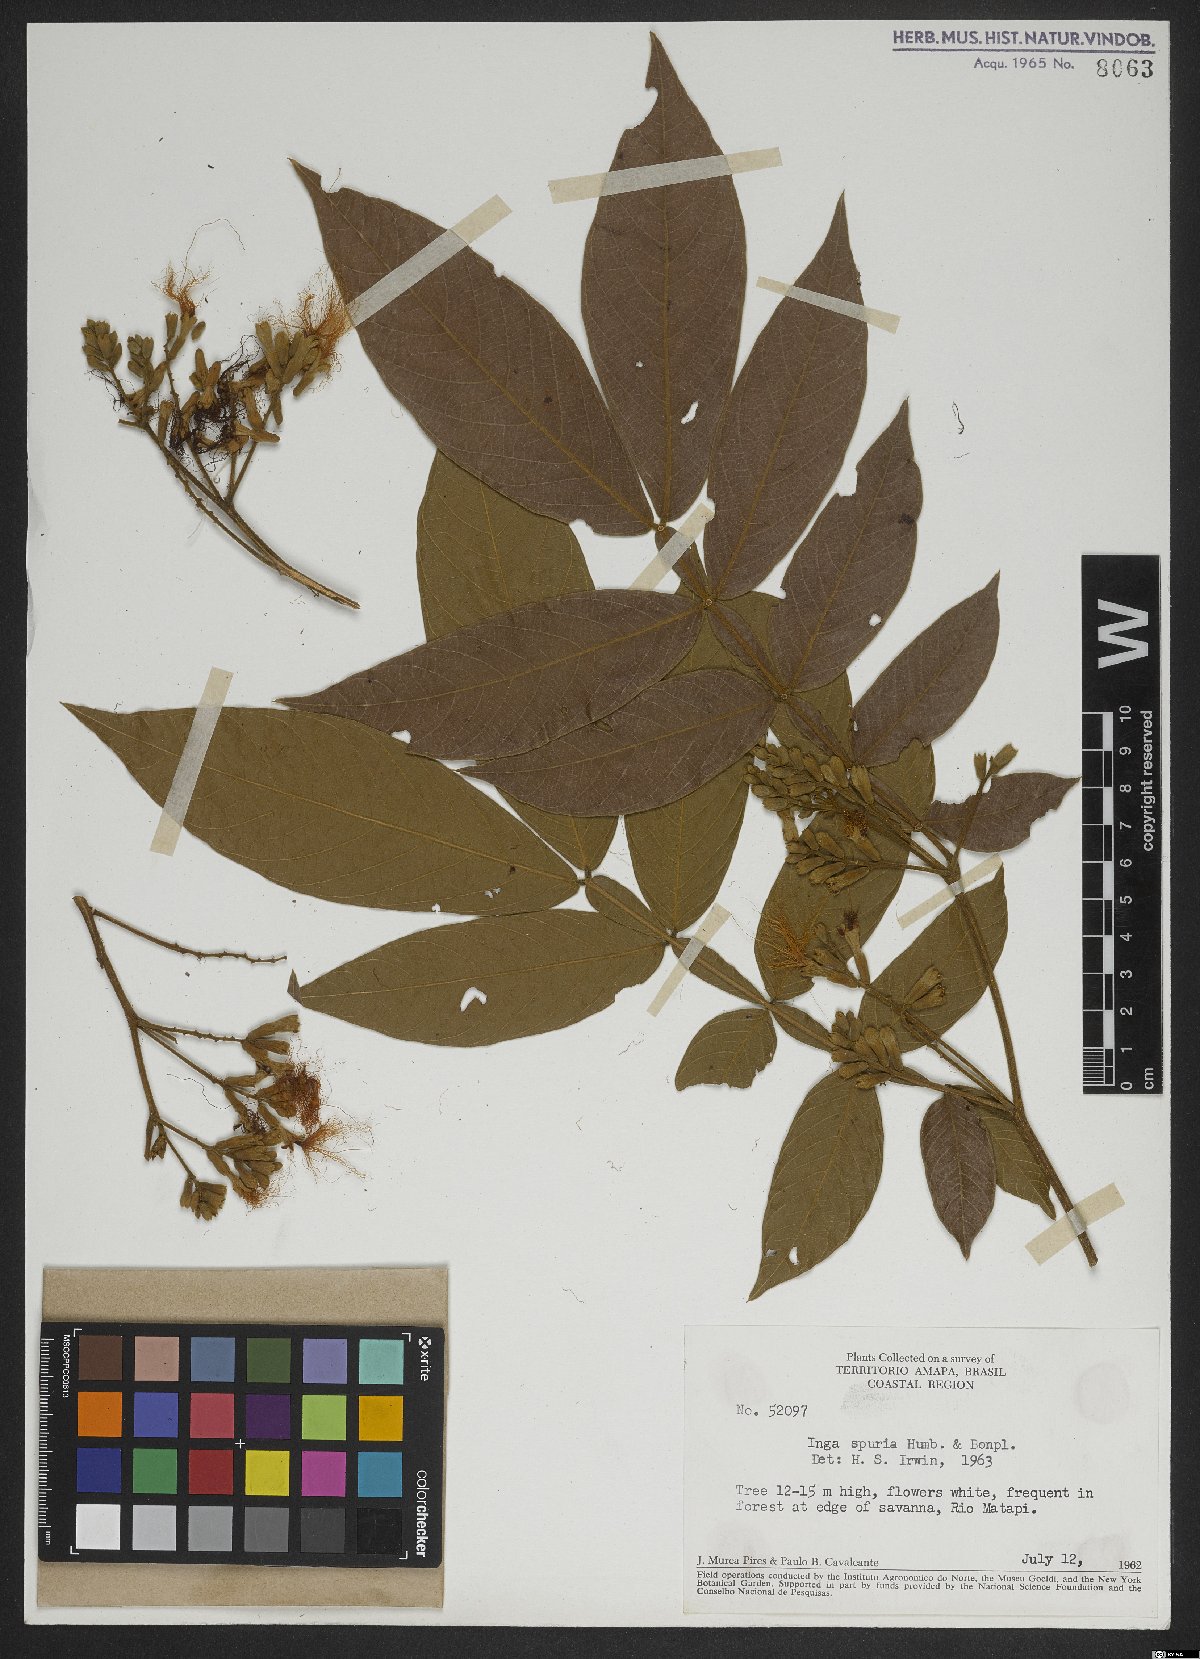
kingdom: Plantae
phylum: Tracheophyta
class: Magnoliopsida
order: Fabales
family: Fabaceae
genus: Inga
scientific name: Inga vera
